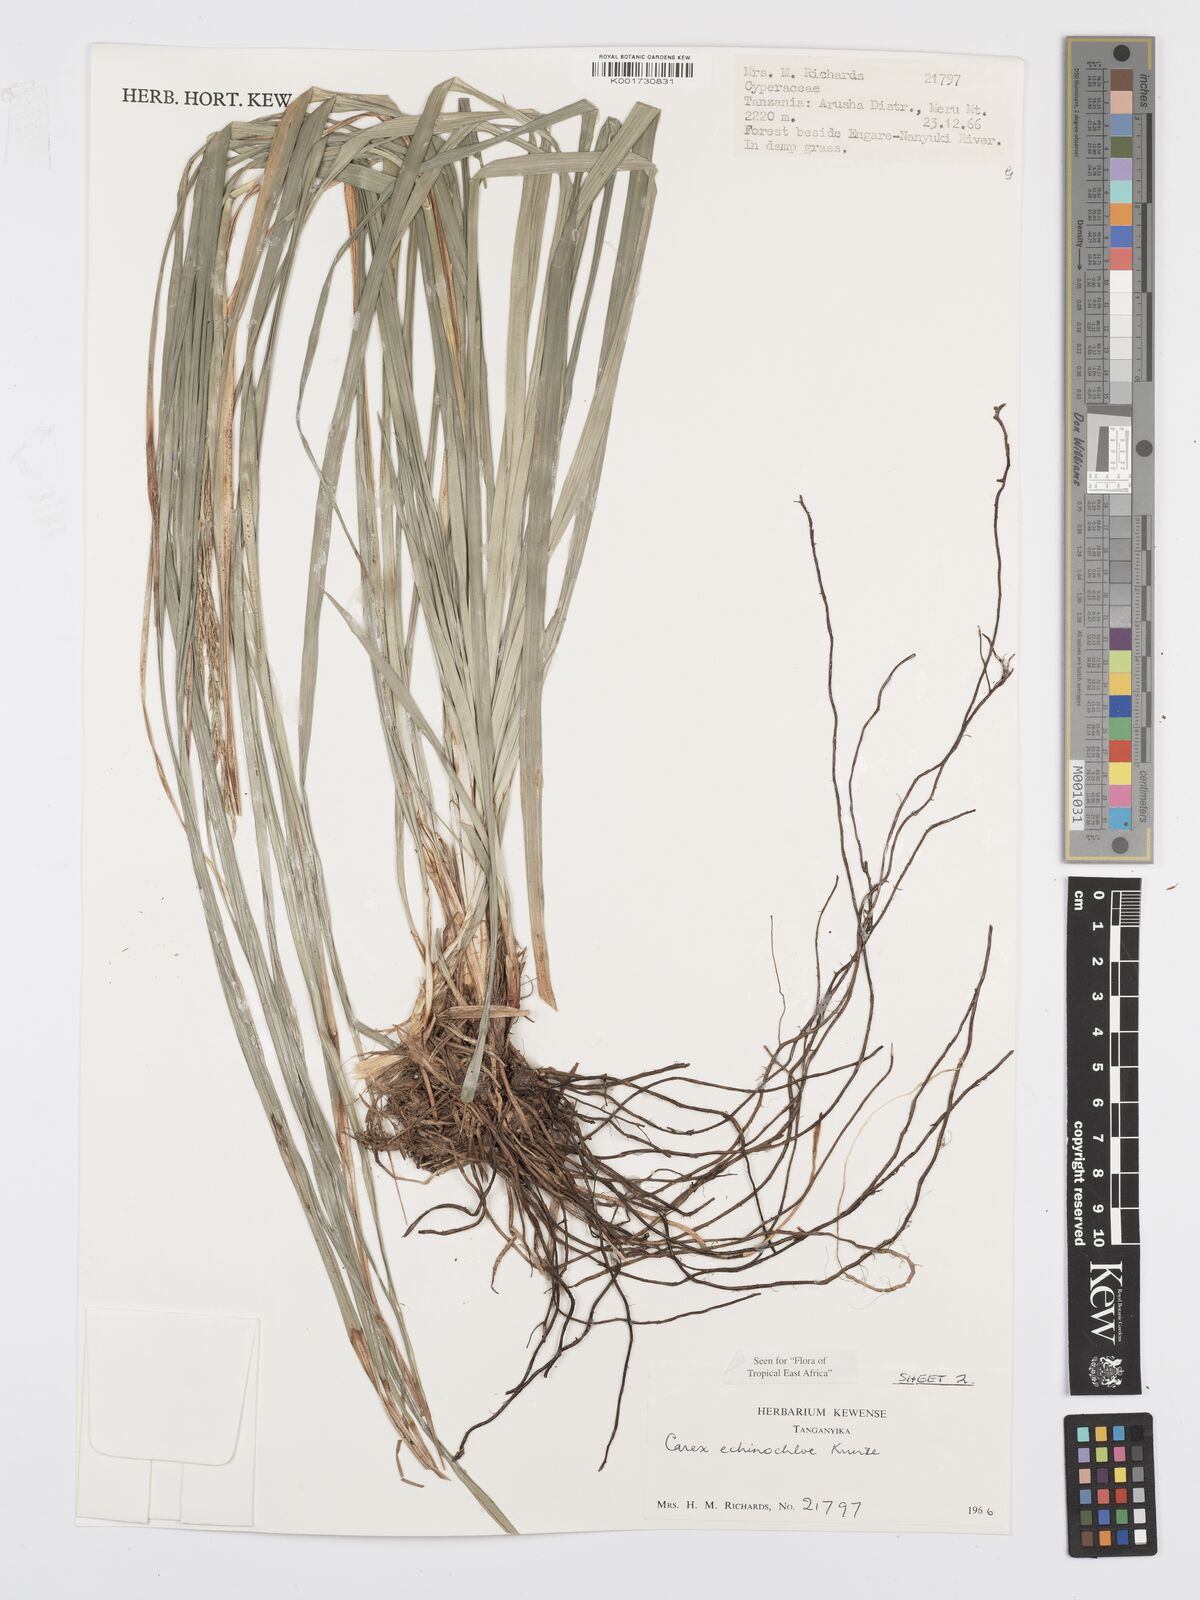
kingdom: Plantae
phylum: Tracheophyta
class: Liliopsida
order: Poales
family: Cyperaceae
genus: Carex
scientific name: Carex echinochloe
